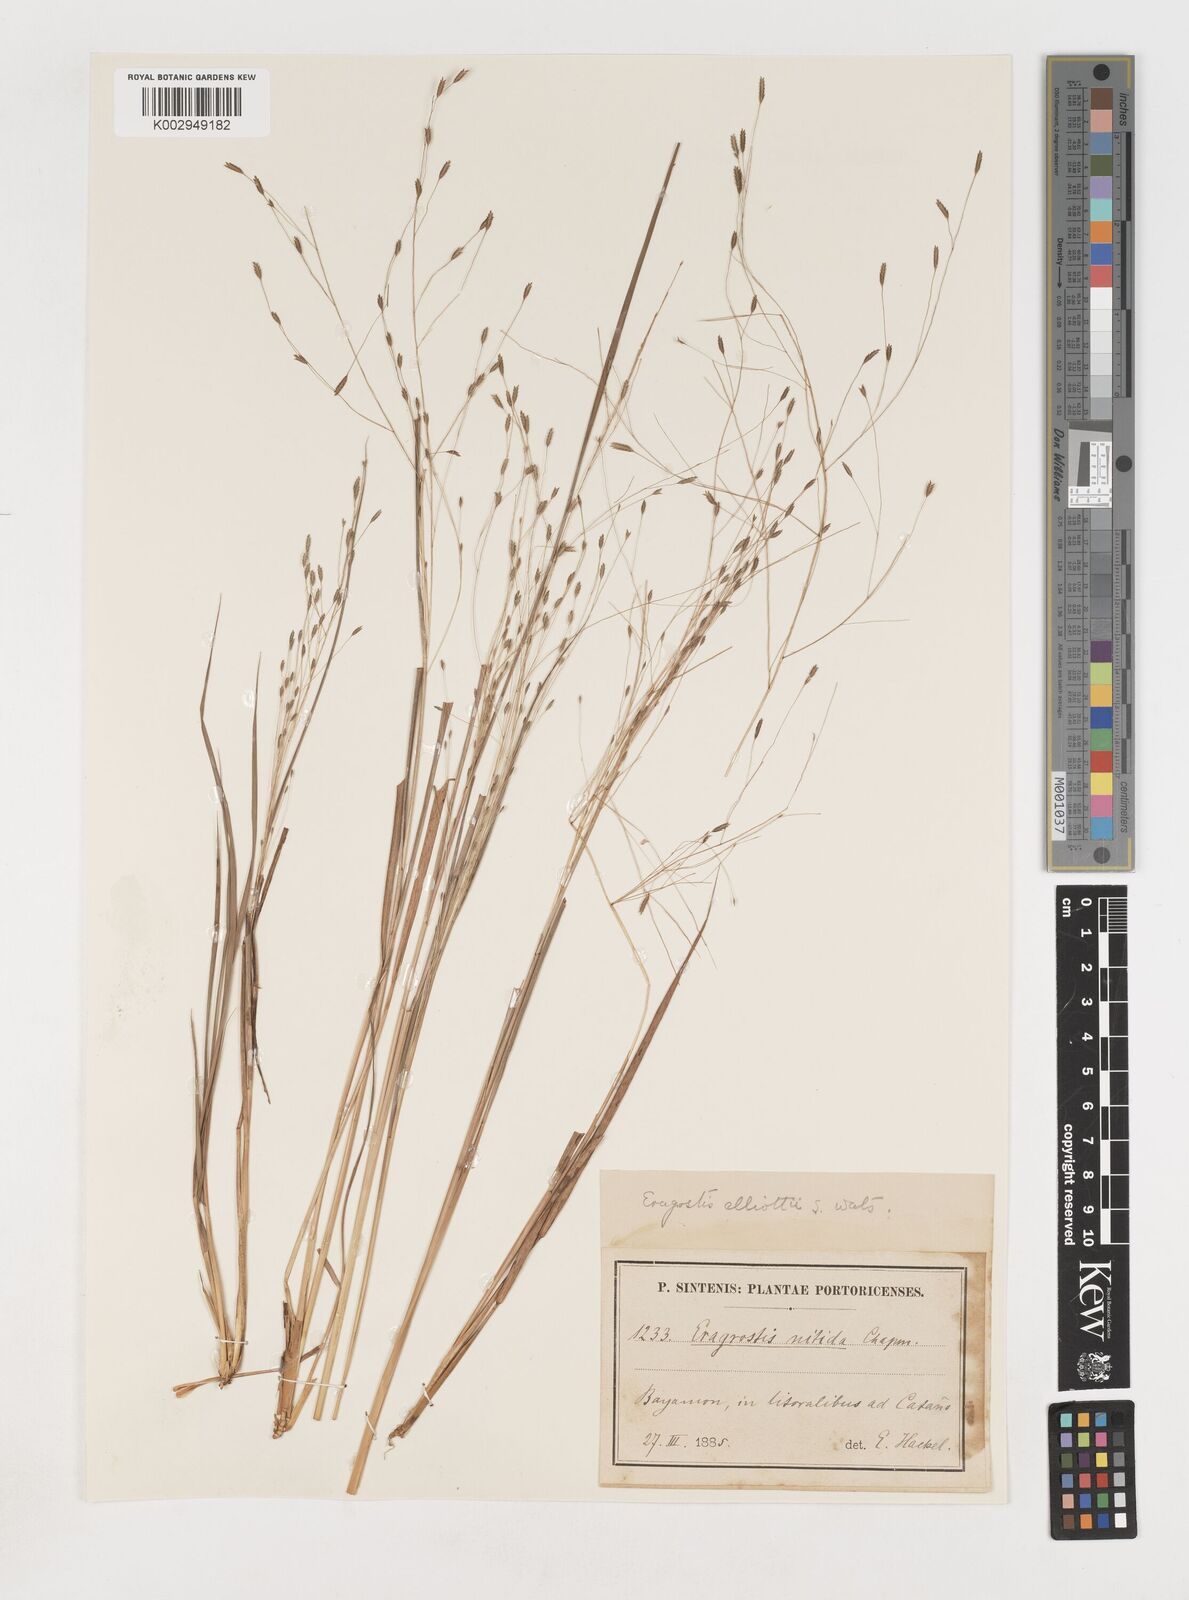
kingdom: Plantae
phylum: Tracheophyta
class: Liliopsida
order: Poales
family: Poaceae
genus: Eragrostis
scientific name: Eragrostis elliottii
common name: Elliott's love grass
